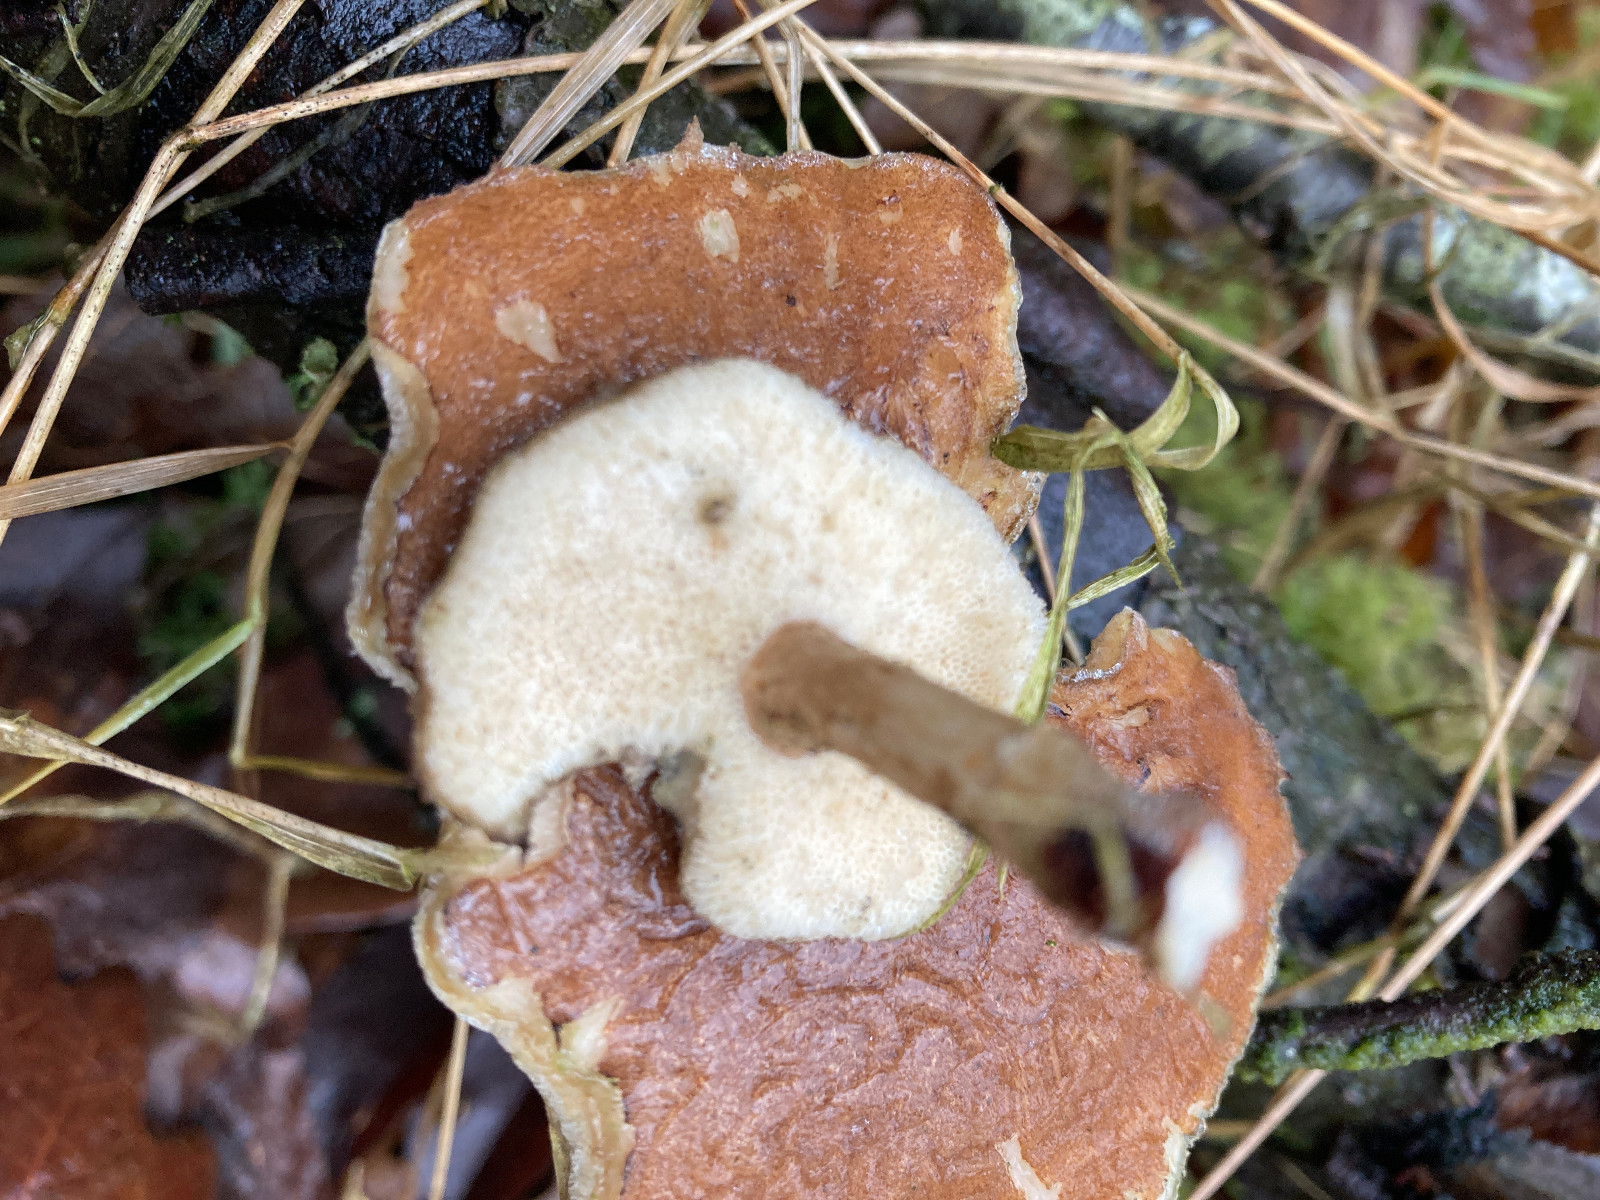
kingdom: Fungi
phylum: Basidiomycota
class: Agaricomycetes
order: Polyporales
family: Polyporaceae
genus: Lentinus
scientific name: Lentinus brumalis
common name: vinter-stilkporesvamp
